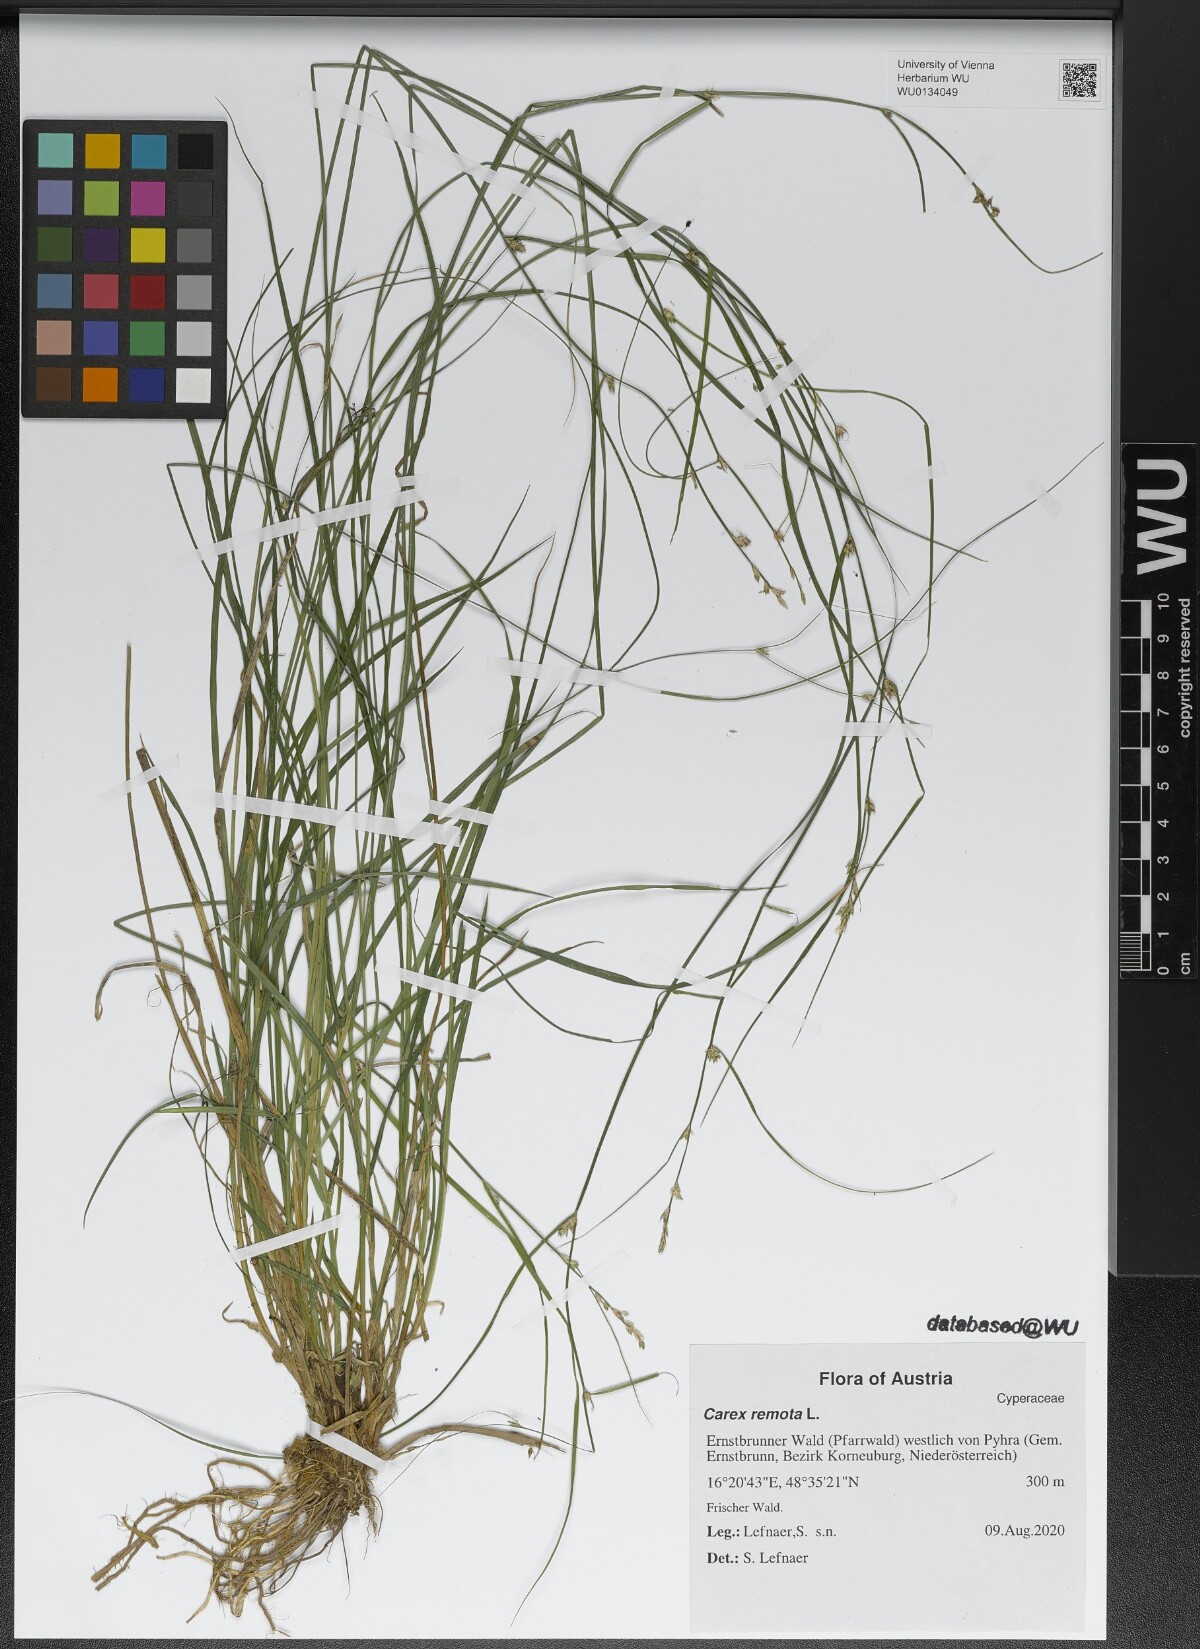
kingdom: Plantae
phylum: Tracheophyta
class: Liliopsida
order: Poales
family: Cyperaceae
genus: Carex
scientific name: Carex remota
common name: Remote sedge
